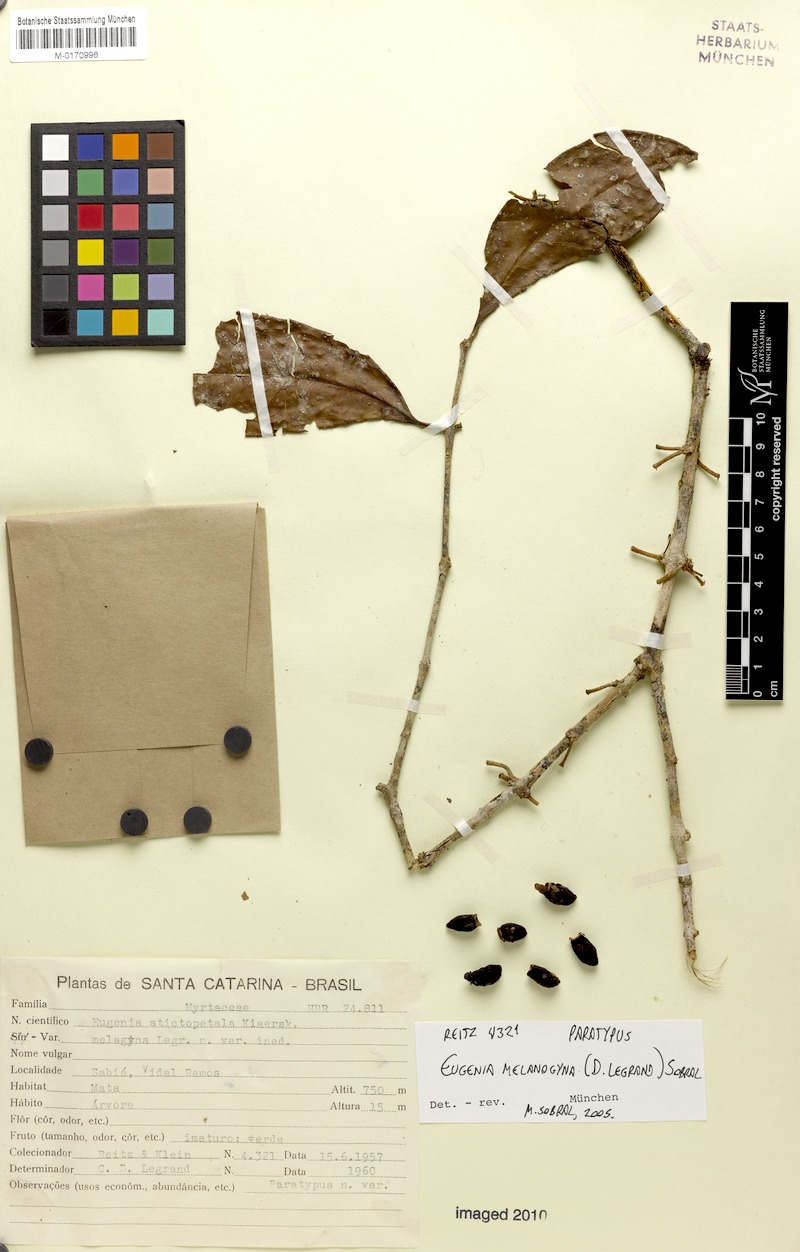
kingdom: Plantae
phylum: Tracheophyta
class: Magnoliopsida
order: Myrtales
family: Myrtaceae
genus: Eugenia
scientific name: Eugenia melanogyna
